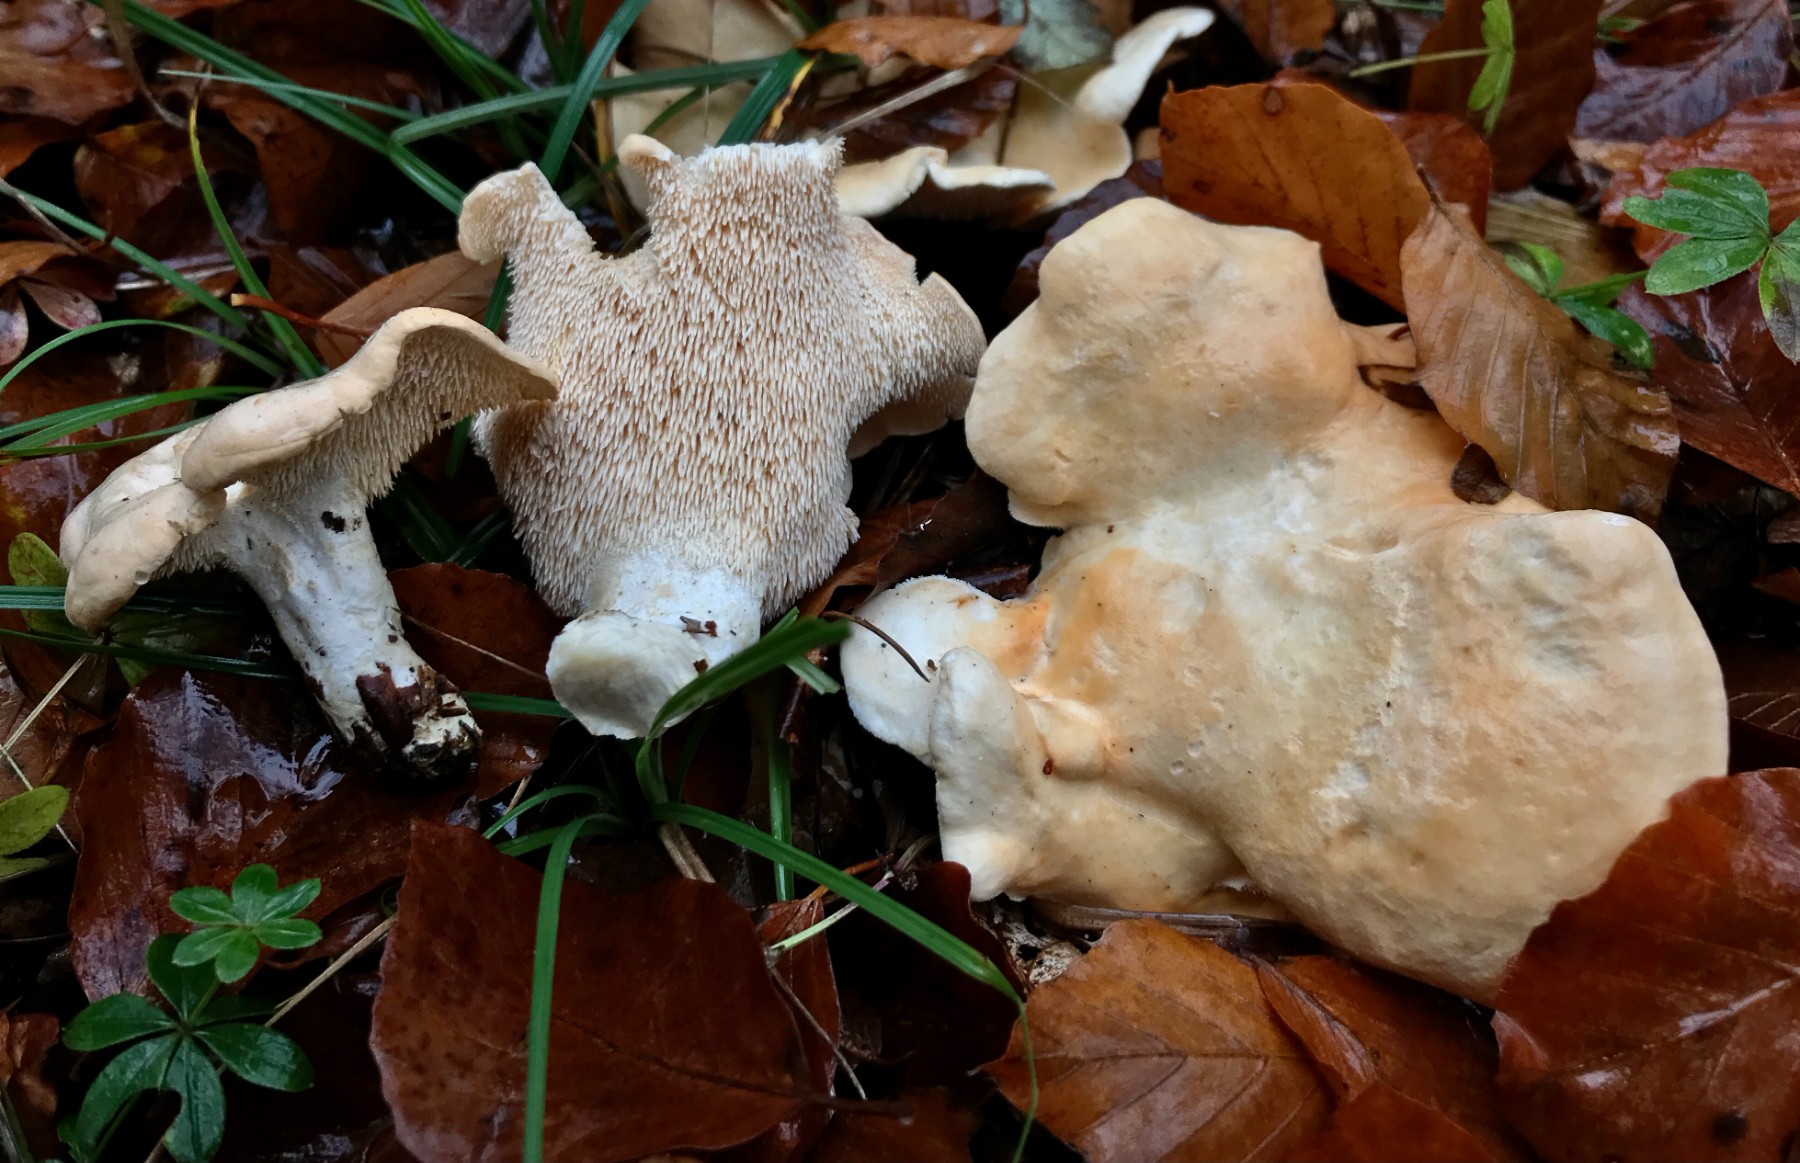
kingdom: Fungi
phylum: Basidiomycota
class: Agaricomycetes
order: Cantharellales
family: Hydnaceae
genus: Hydnum
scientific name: Hydnum repandum
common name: almindelig pigsvamp
